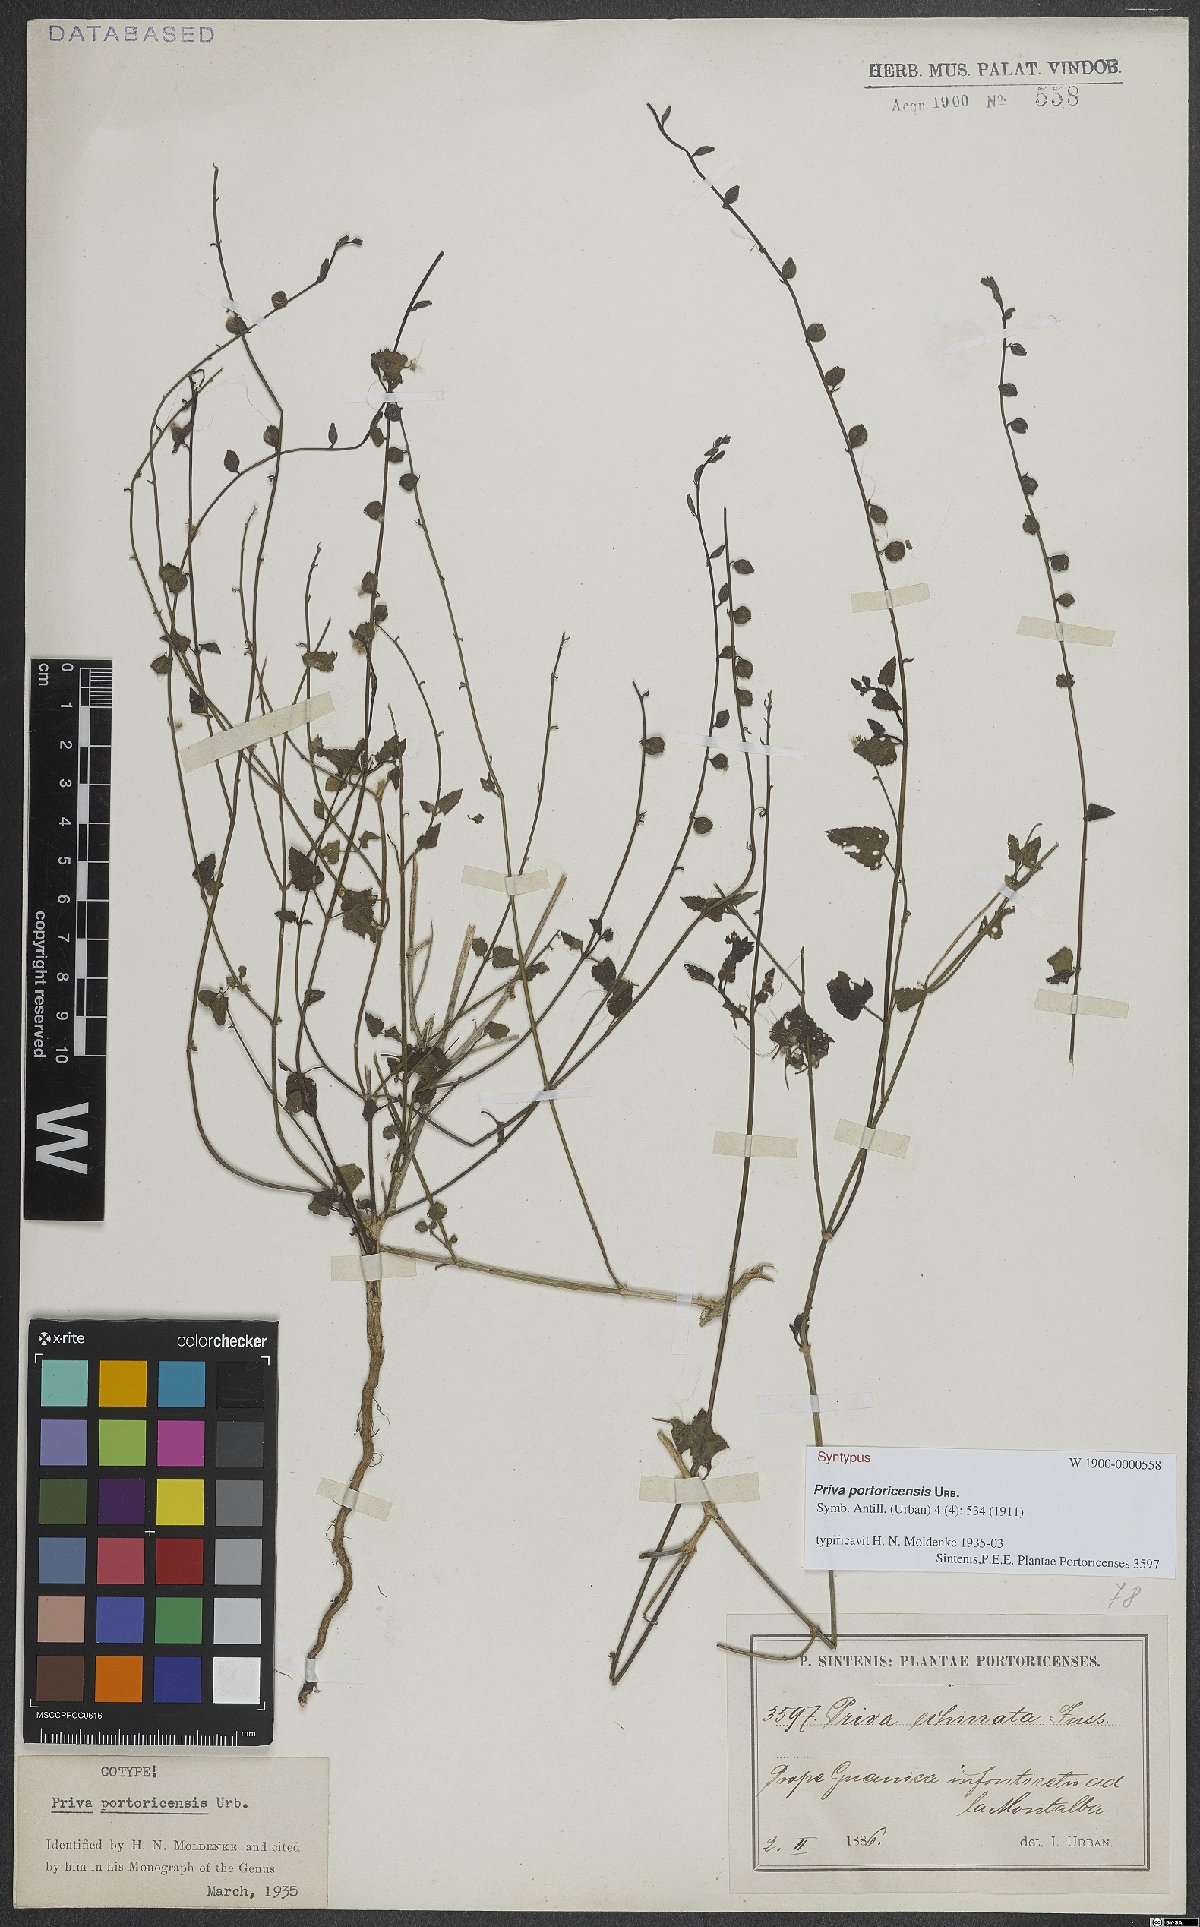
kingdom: Plantae
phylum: Tracheophyta
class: Magnoliopsida
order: Lamiales
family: Verbenaceae
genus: Priva
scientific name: Priva portoricensis
